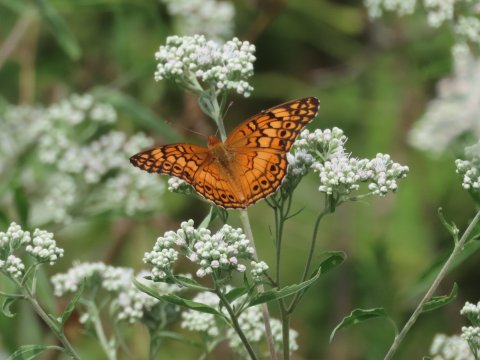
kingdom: Animalia
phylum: Arthropoda
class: Insecta
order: Lepidoptera
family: Nymphalidae
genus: Euptoieta
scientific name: Euptoieta claudia
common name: Variegated Fritillary
